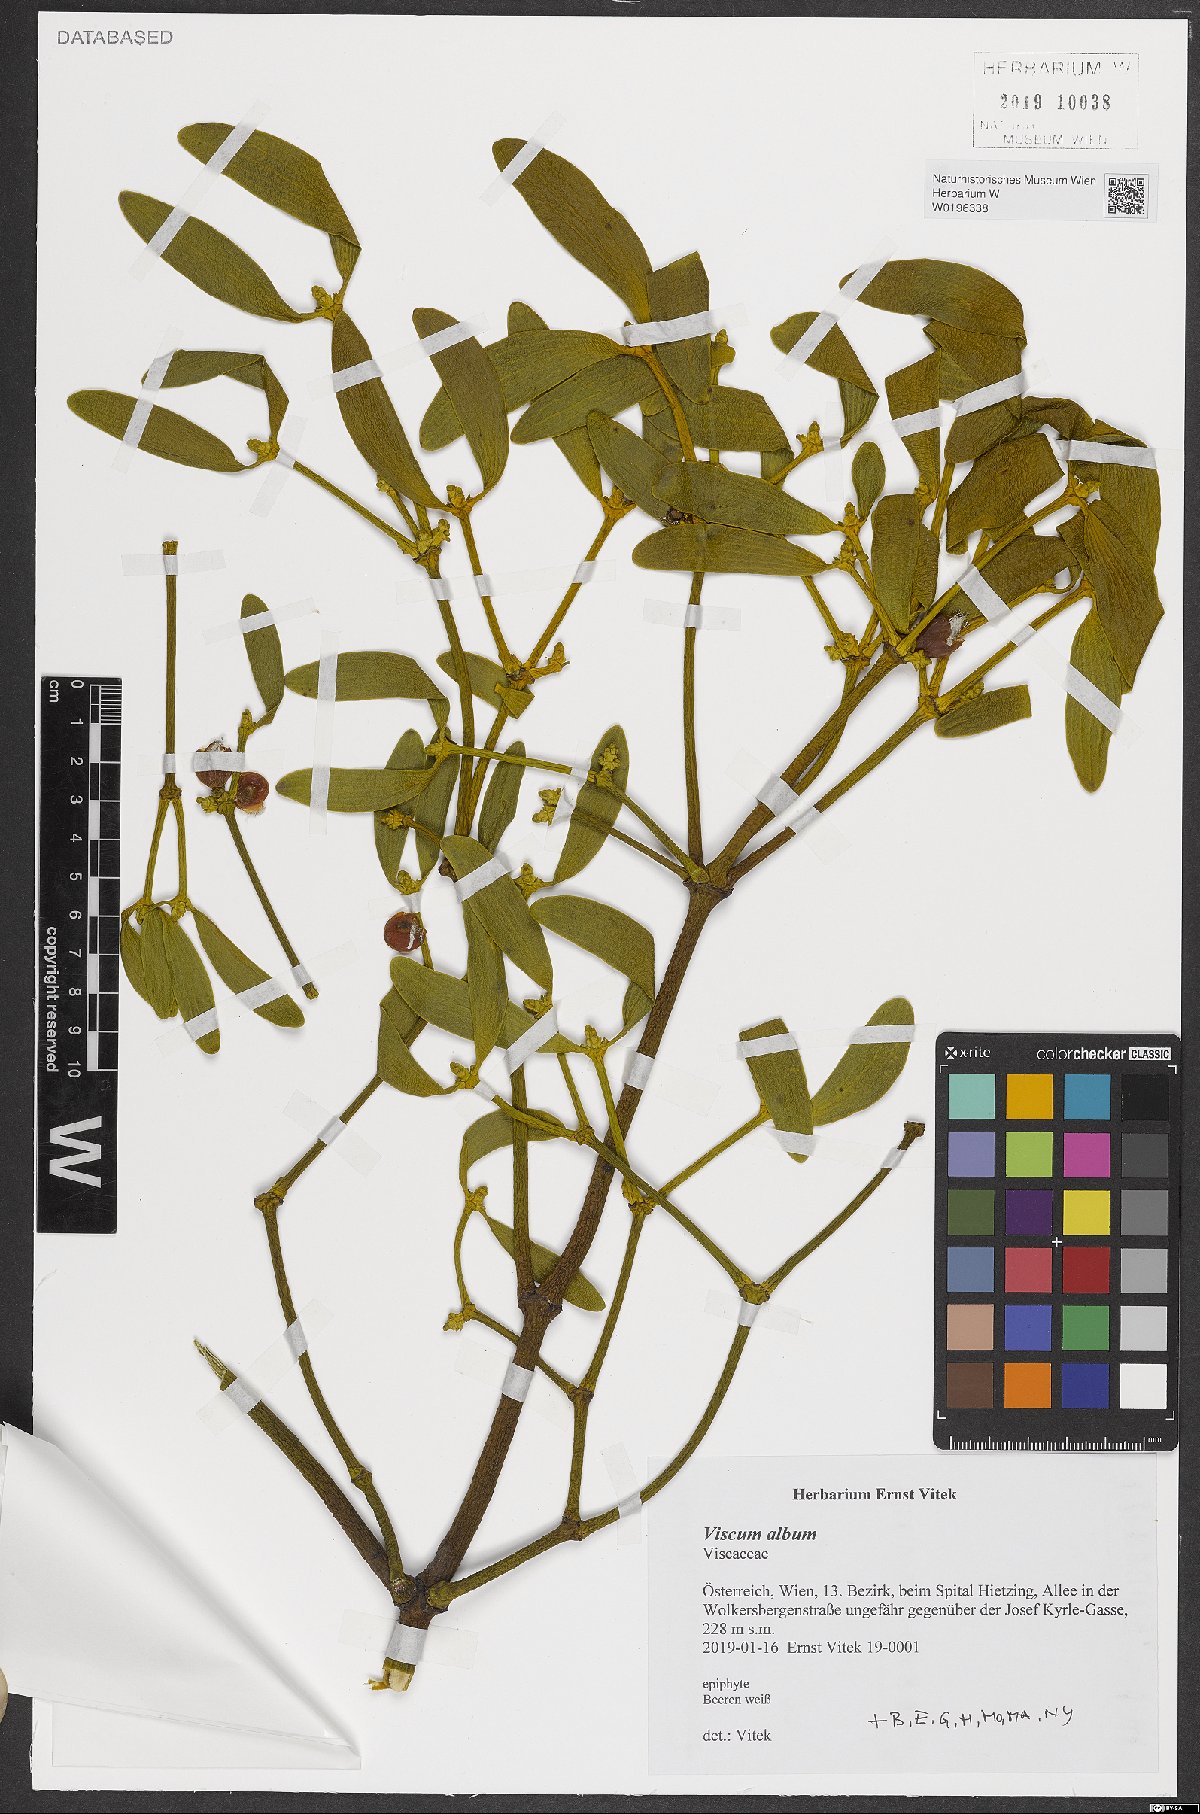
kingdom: Plantae
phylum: Tracheophyta
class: Magnoliopsida
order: Santalales
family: Viscaceae
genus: Viscum
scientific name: Viscum album
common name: Mistletoe
